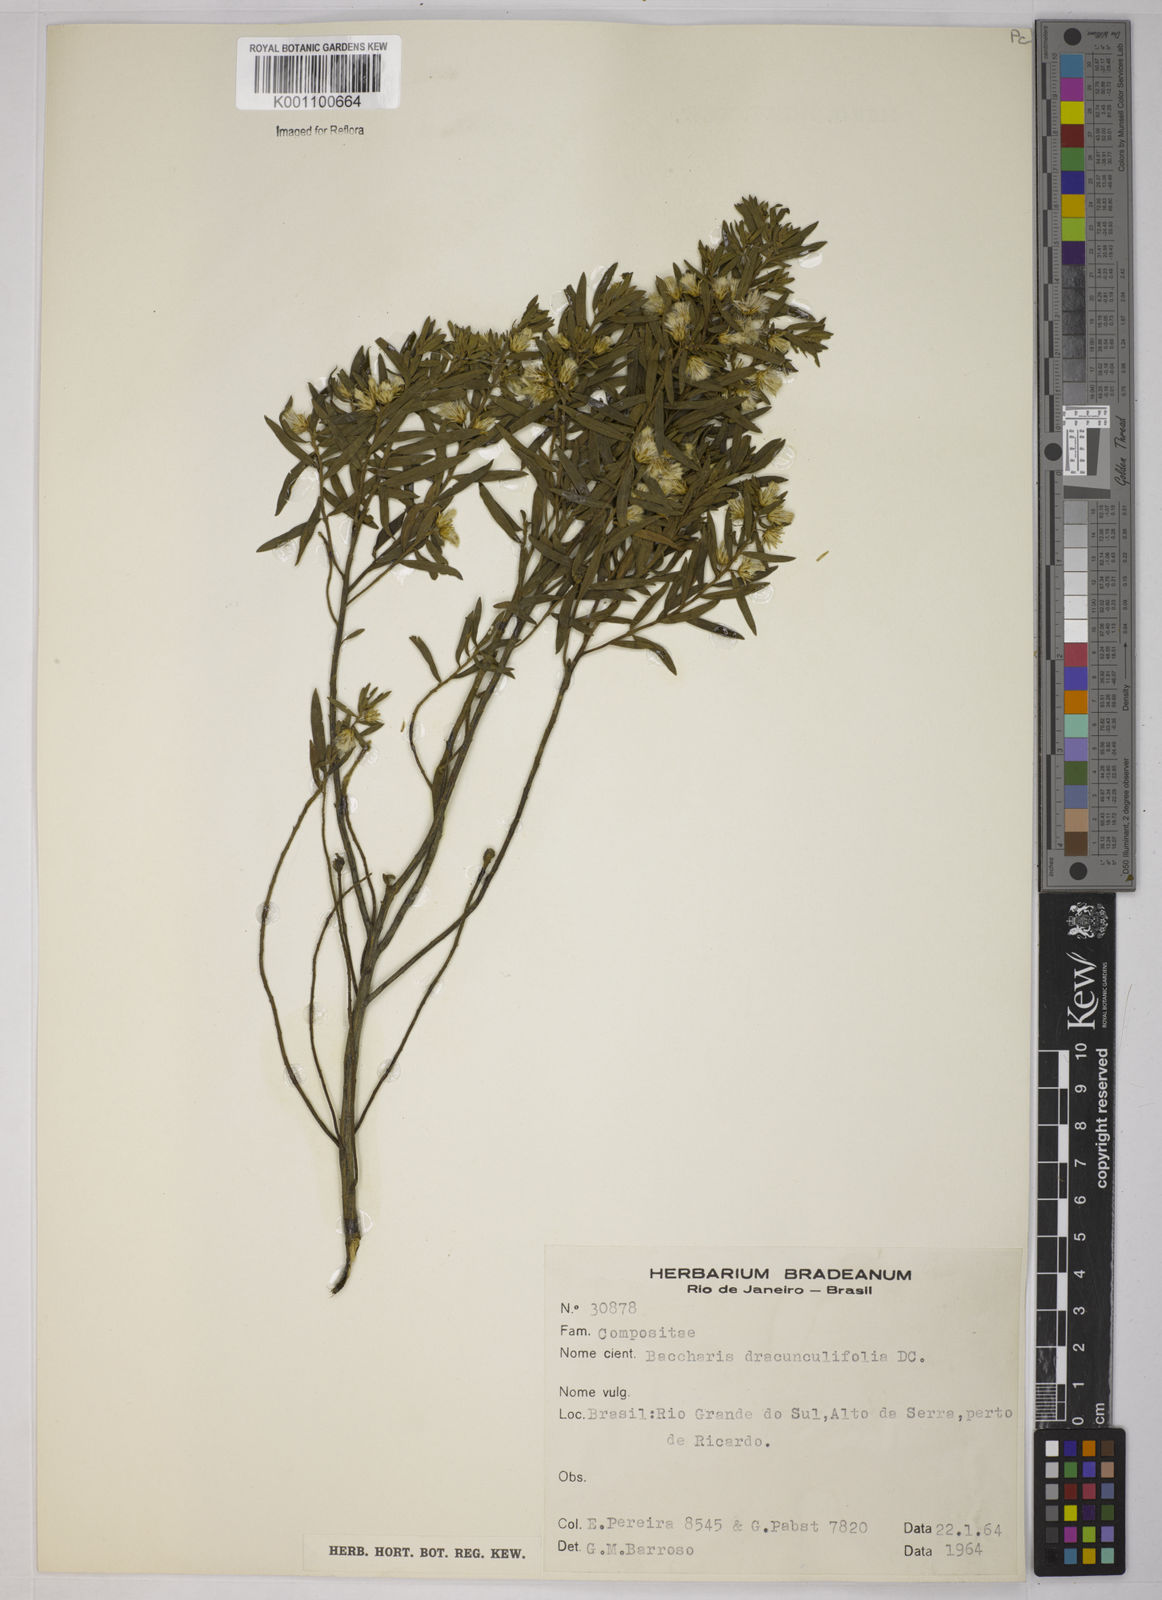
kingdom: Plantae
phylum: Tracheophyta
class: Magnoliopsida
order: Asterales
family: Asteraceae
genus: Baccharis
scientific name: Baccharis dracunculifolia
